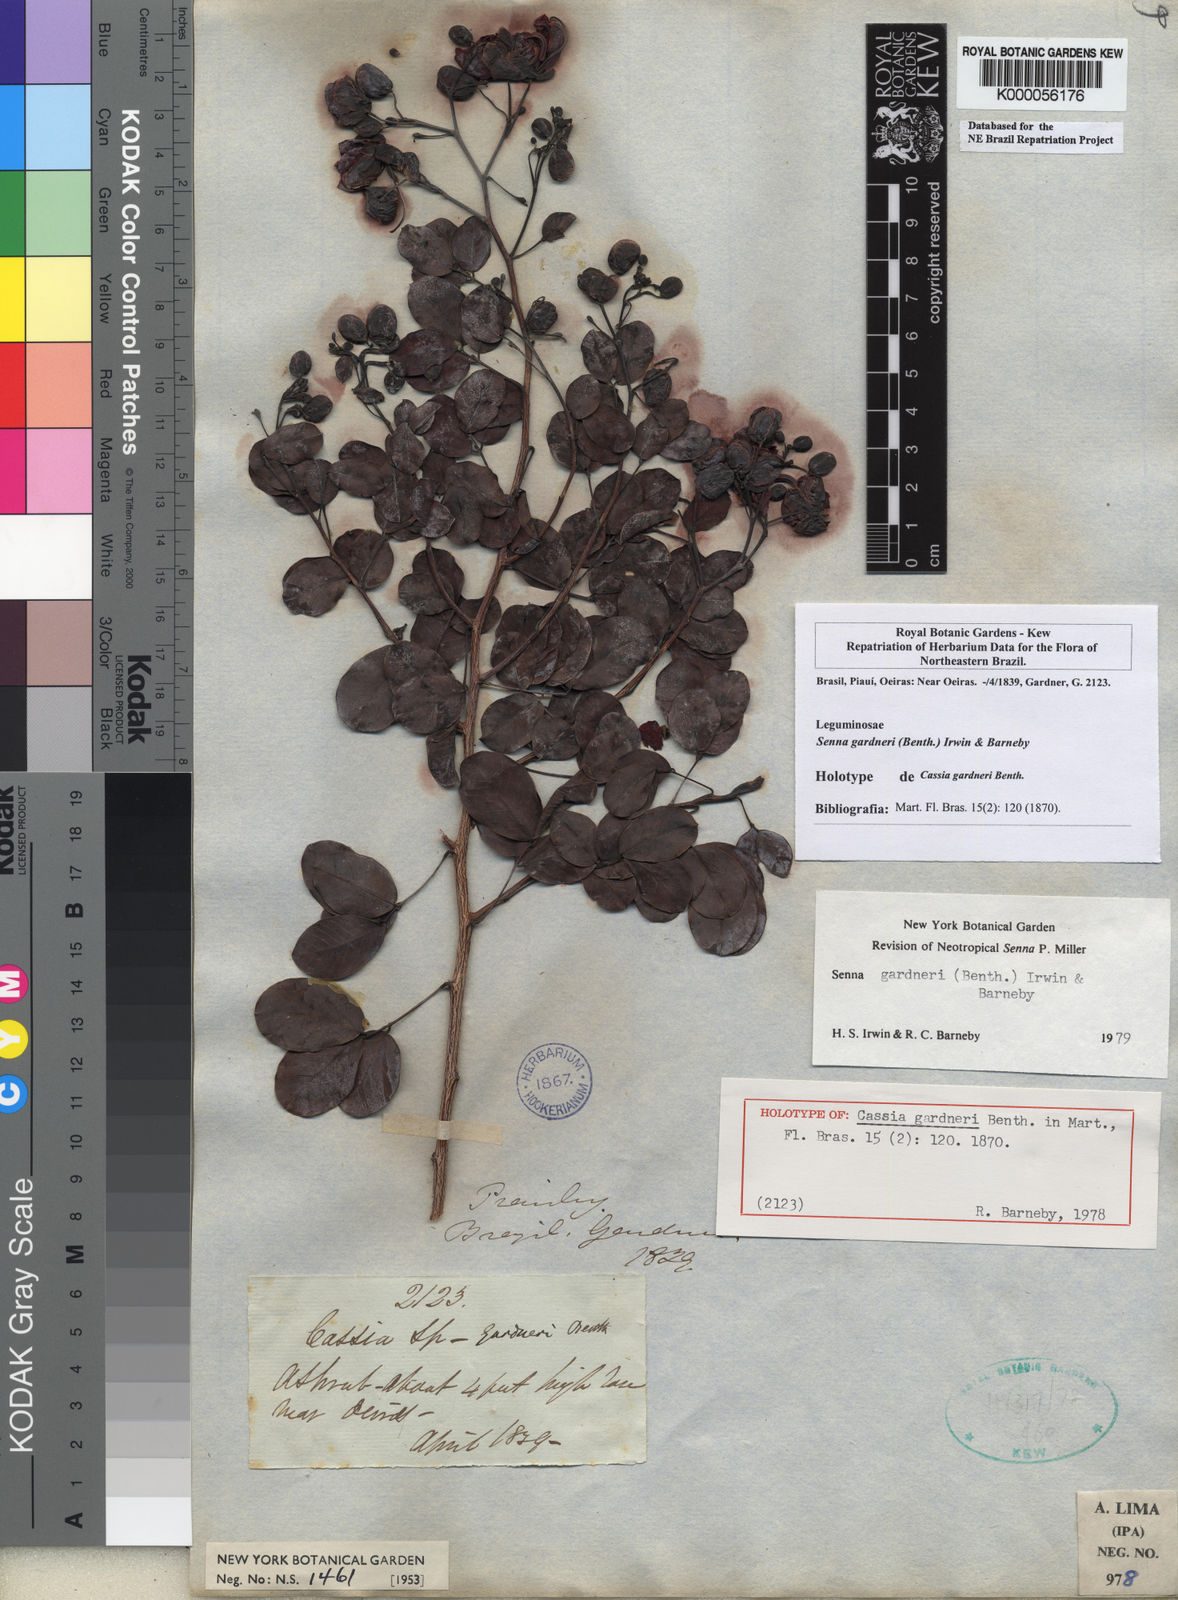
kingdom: Plantae
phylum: Tracheophyta
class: Magnoliopsida
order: Fabales
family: Fabaceae
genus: Senna
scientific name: Senna gardneri
